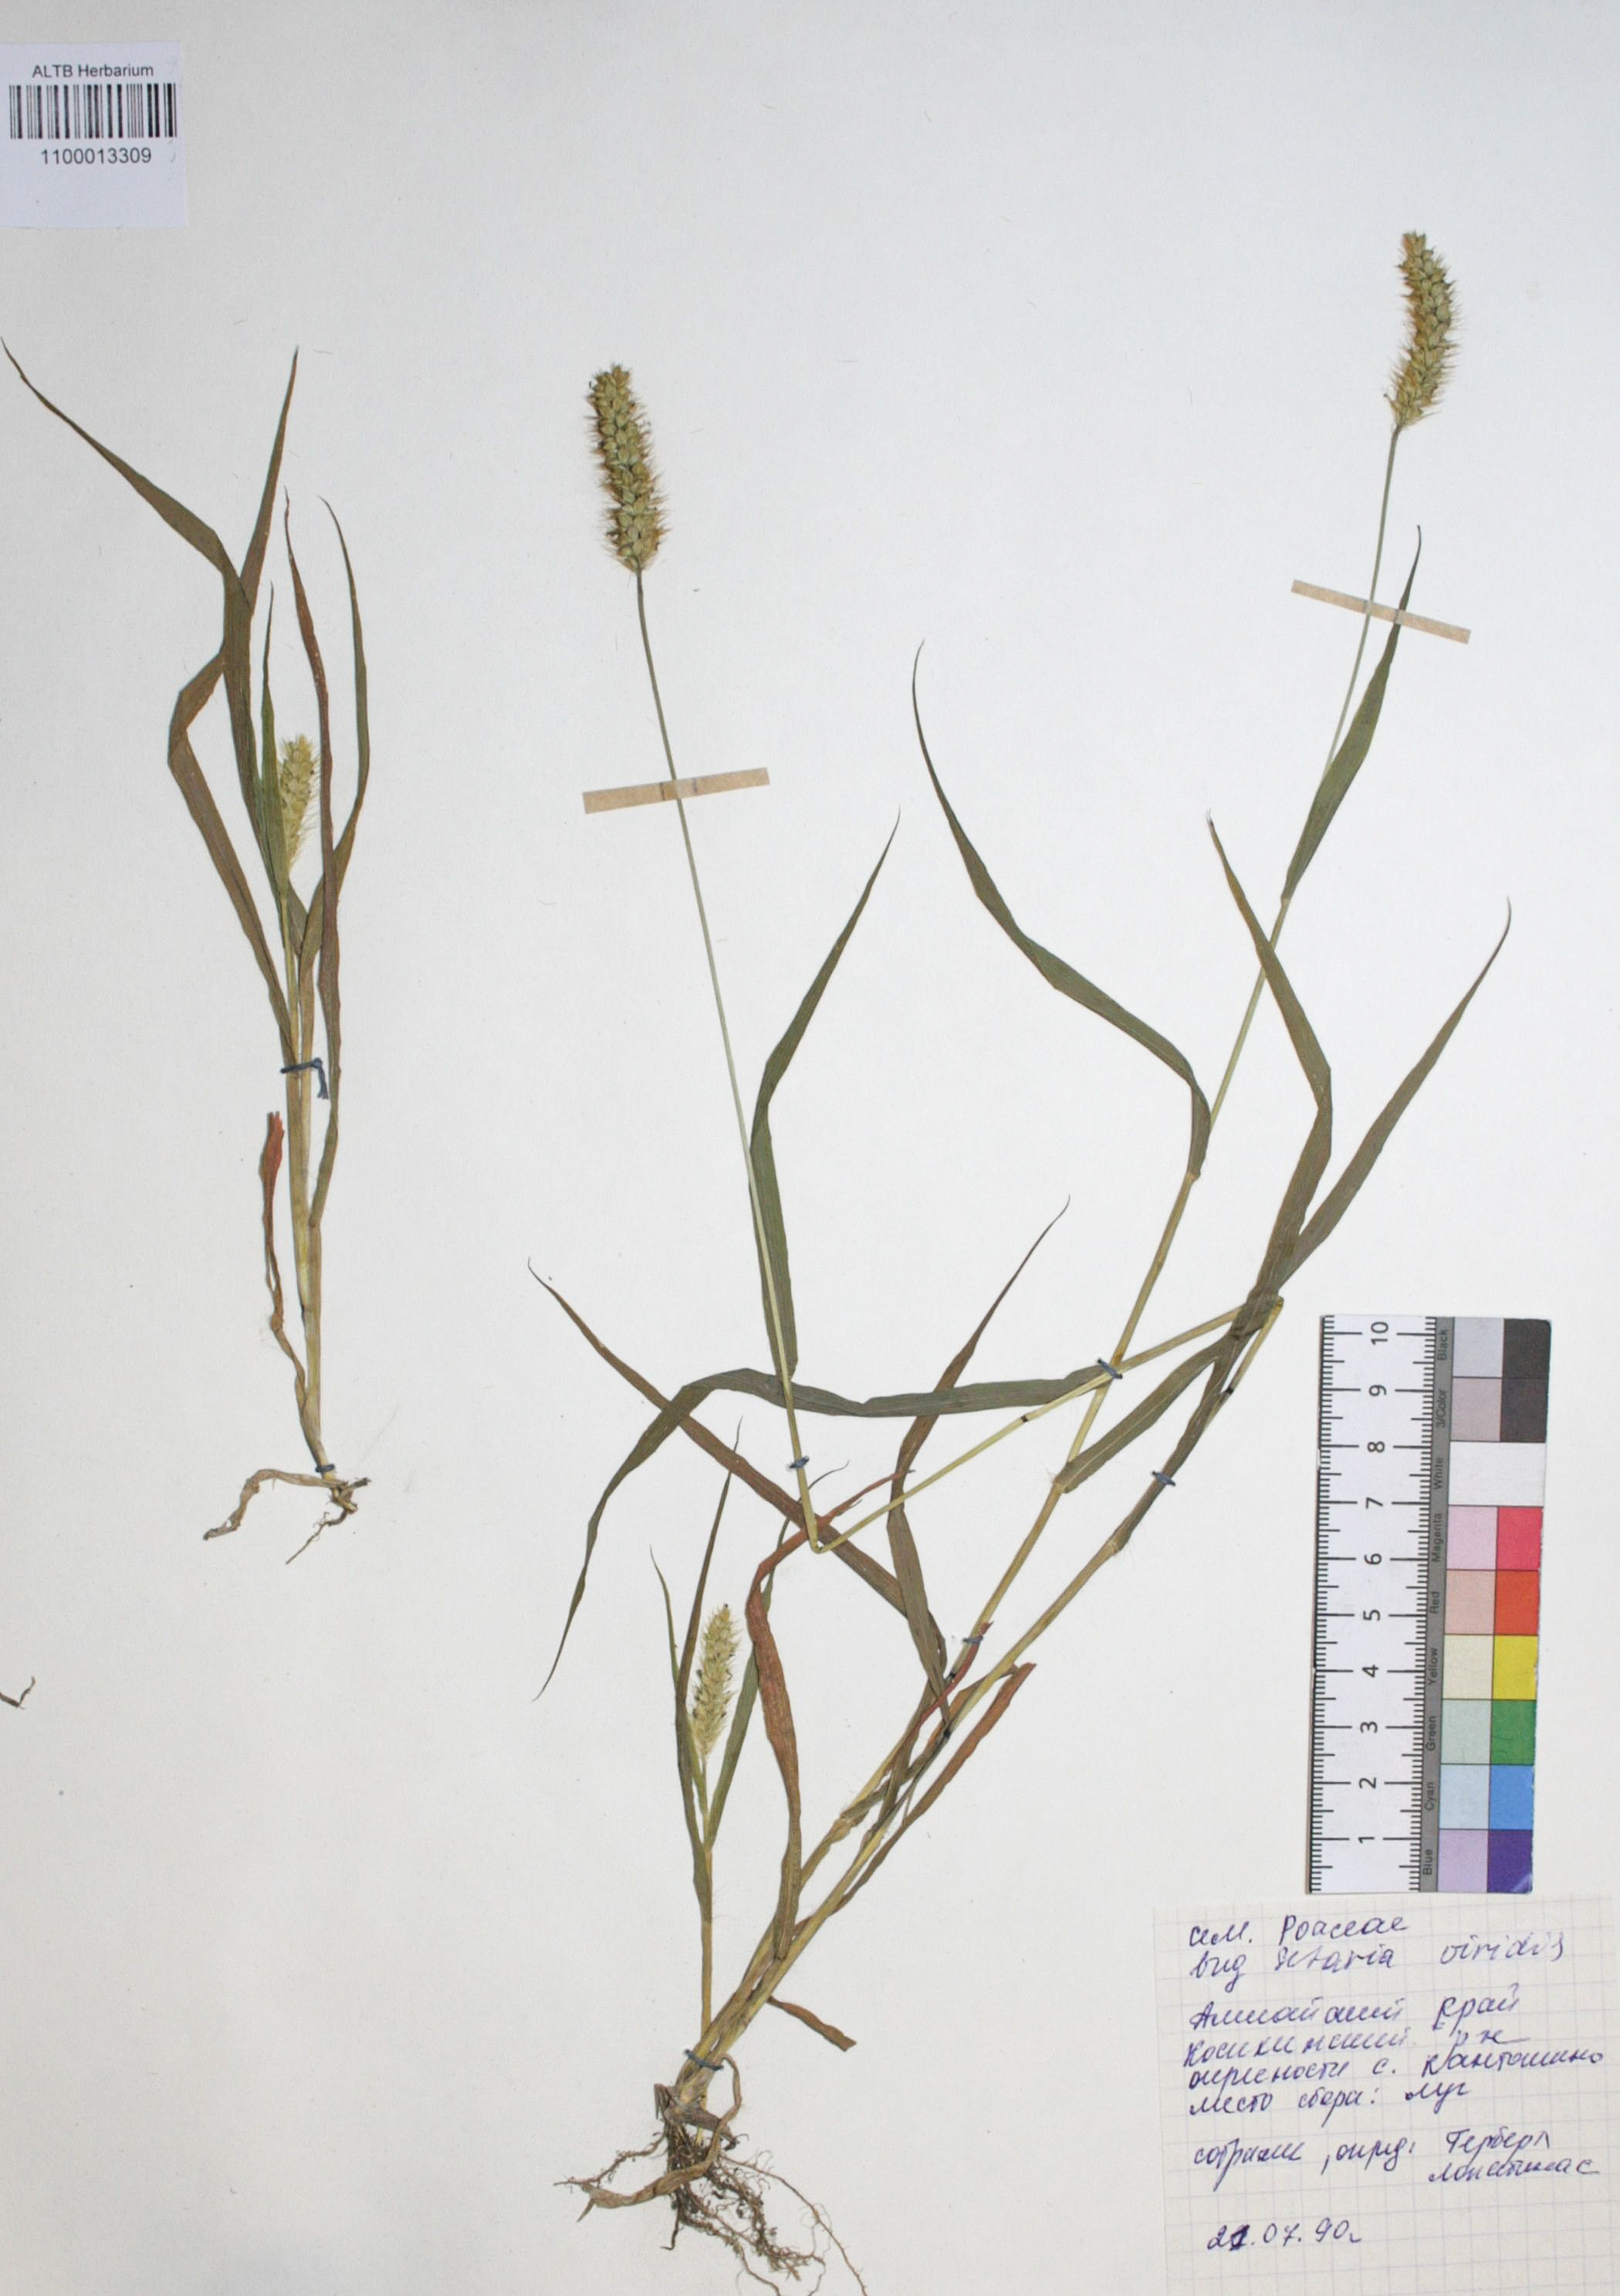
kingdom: Plantae
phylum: Tracheophyta
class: Liliopsida
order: Poales
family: Poaceae
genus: Setaria
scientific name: Setaria pumila
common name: Yellow bristle-grass
